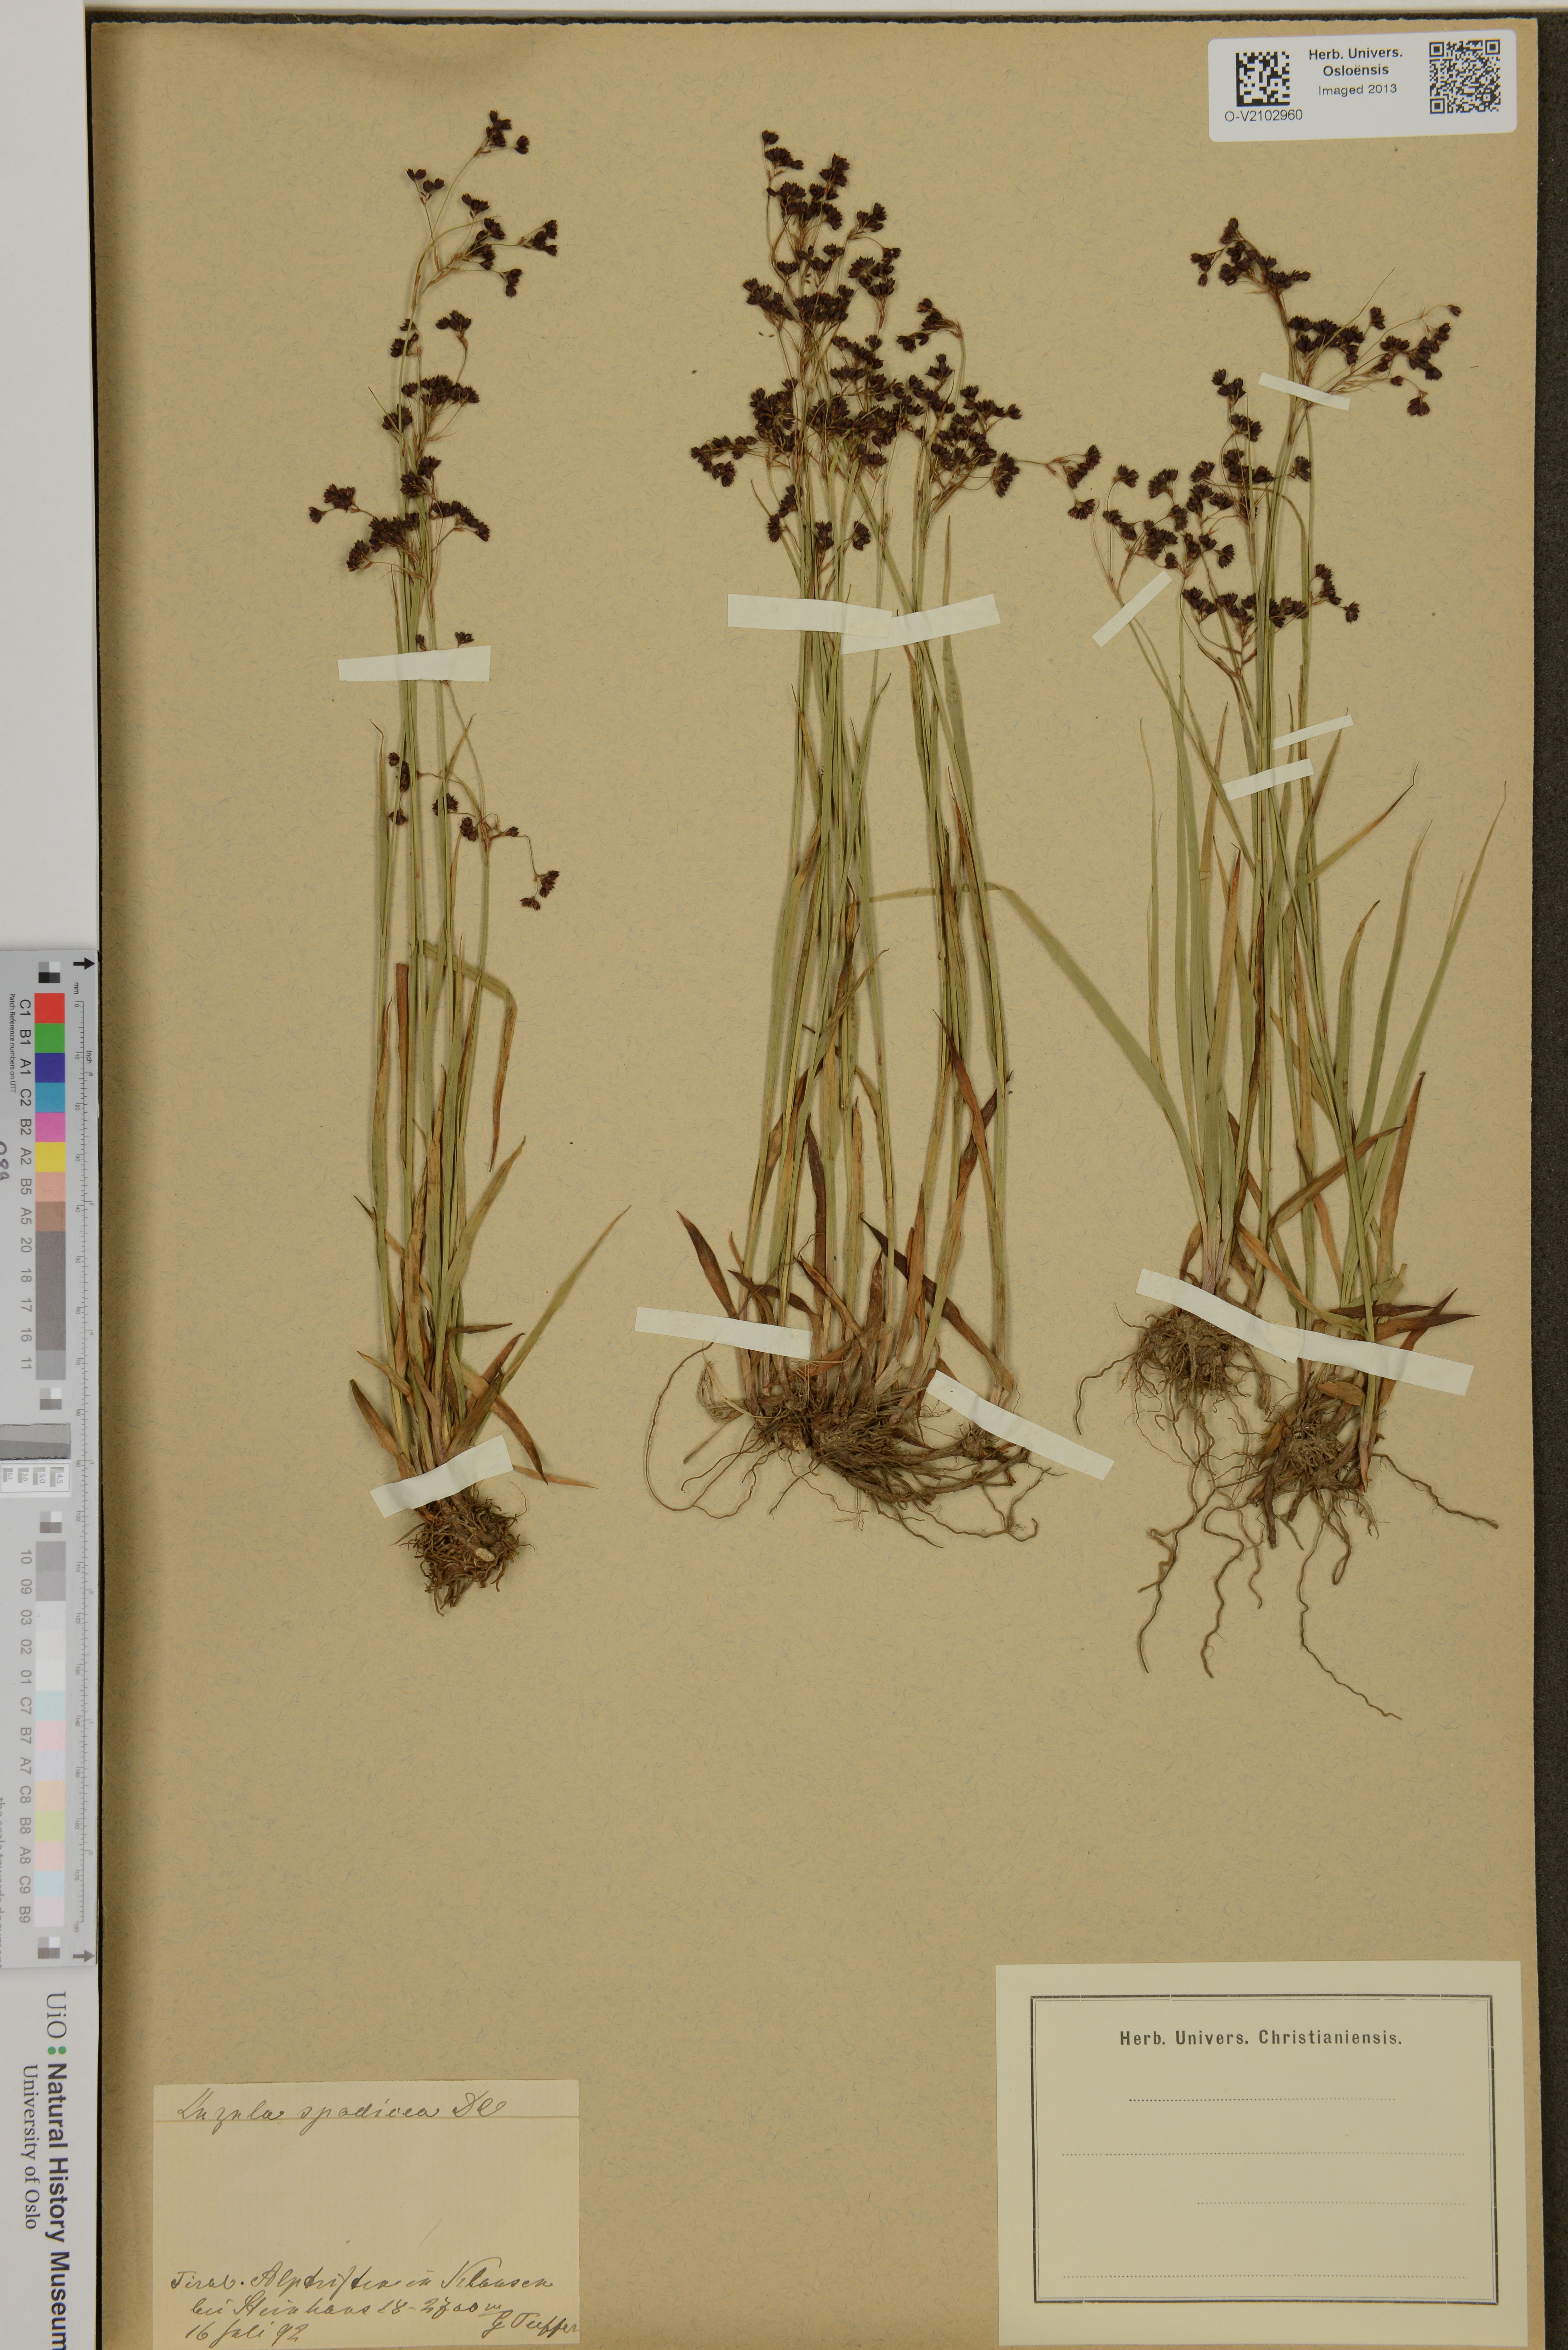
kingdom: Plantae
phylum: Tracheophyta
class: Liliopsida
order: Poales
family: Juncaceae
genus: Luzula
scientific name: Luzula alpinopilosa
